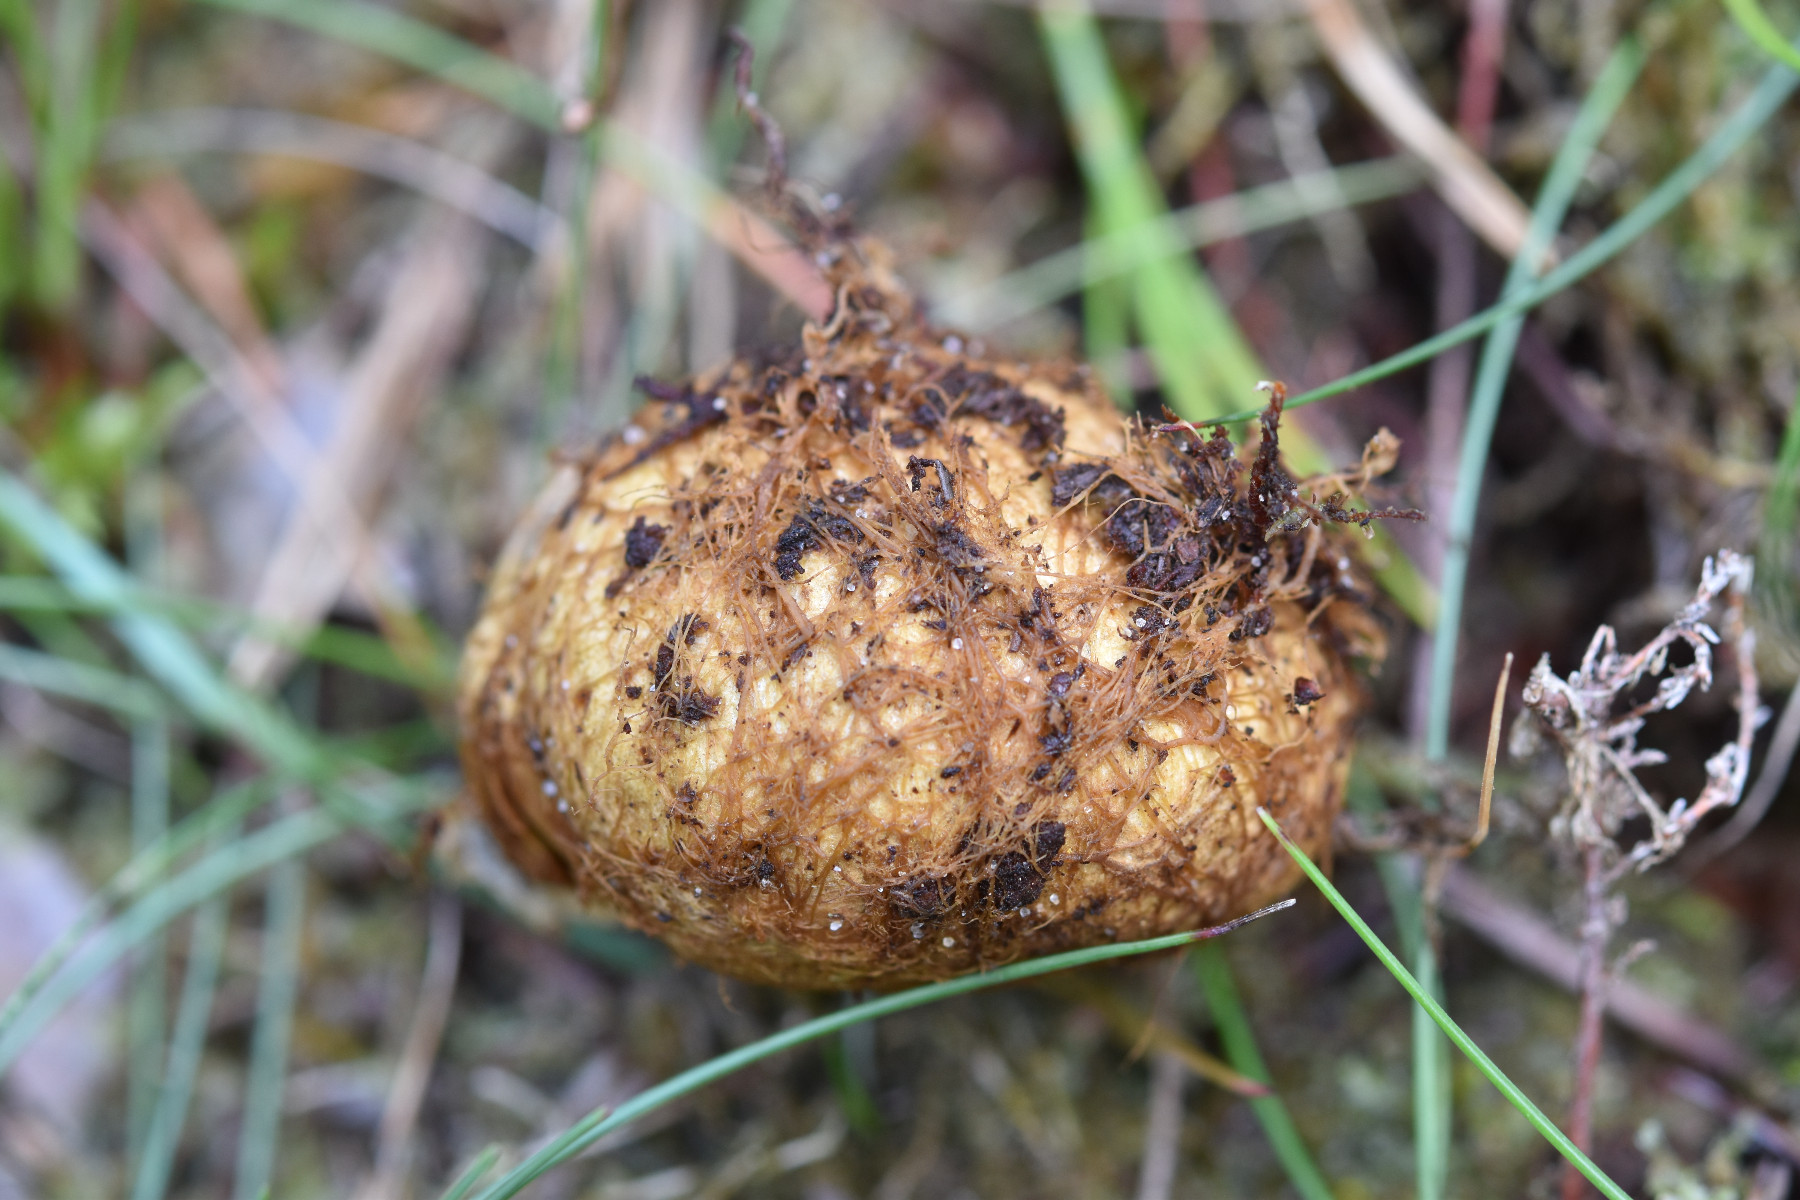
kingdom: Fungi
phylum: Basidiomycota
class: Agaricomycetes
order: Boletales
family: Rhizopogonaceae
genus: Rhizopogon
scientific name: Rhizopogon obtextus
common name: gul skægtrøffel
